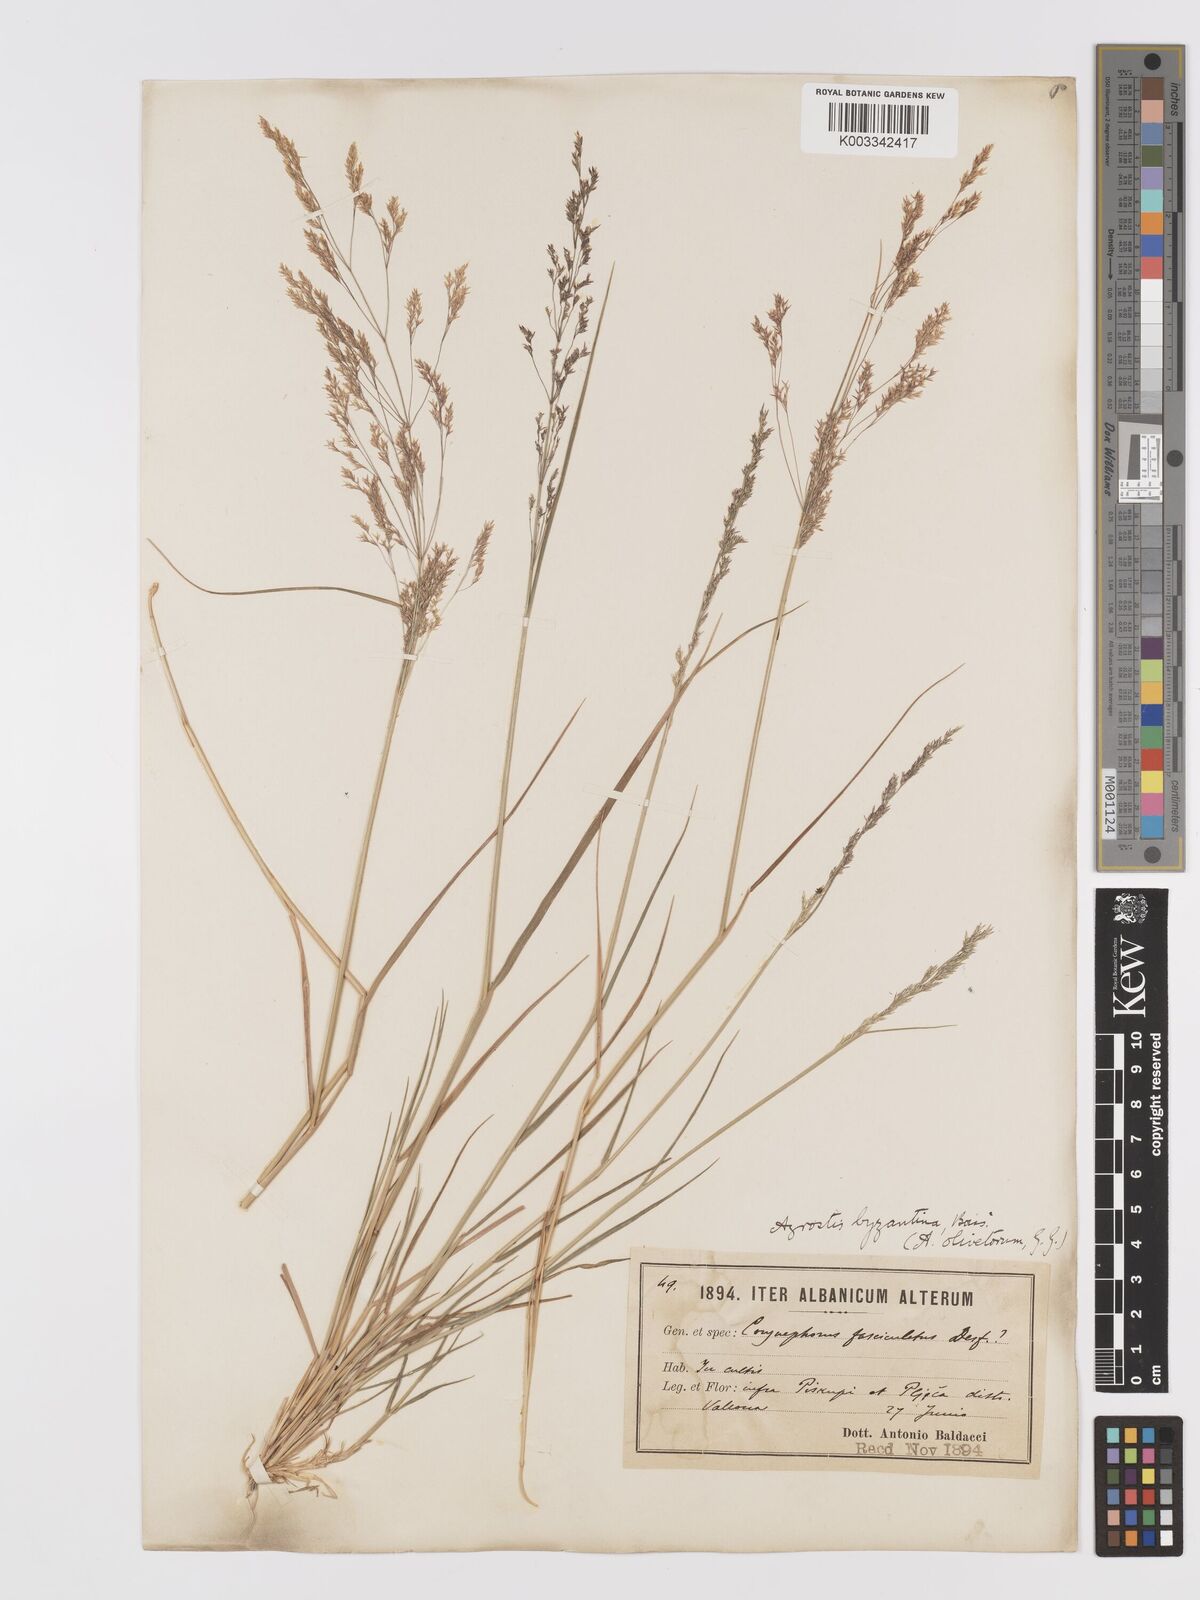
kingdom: Plantae
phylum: Tracheophyta
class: Liliopsida
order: Poales
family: Poaceae
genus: Agrostis
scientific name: Agrostis castellana
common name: Highland bent
